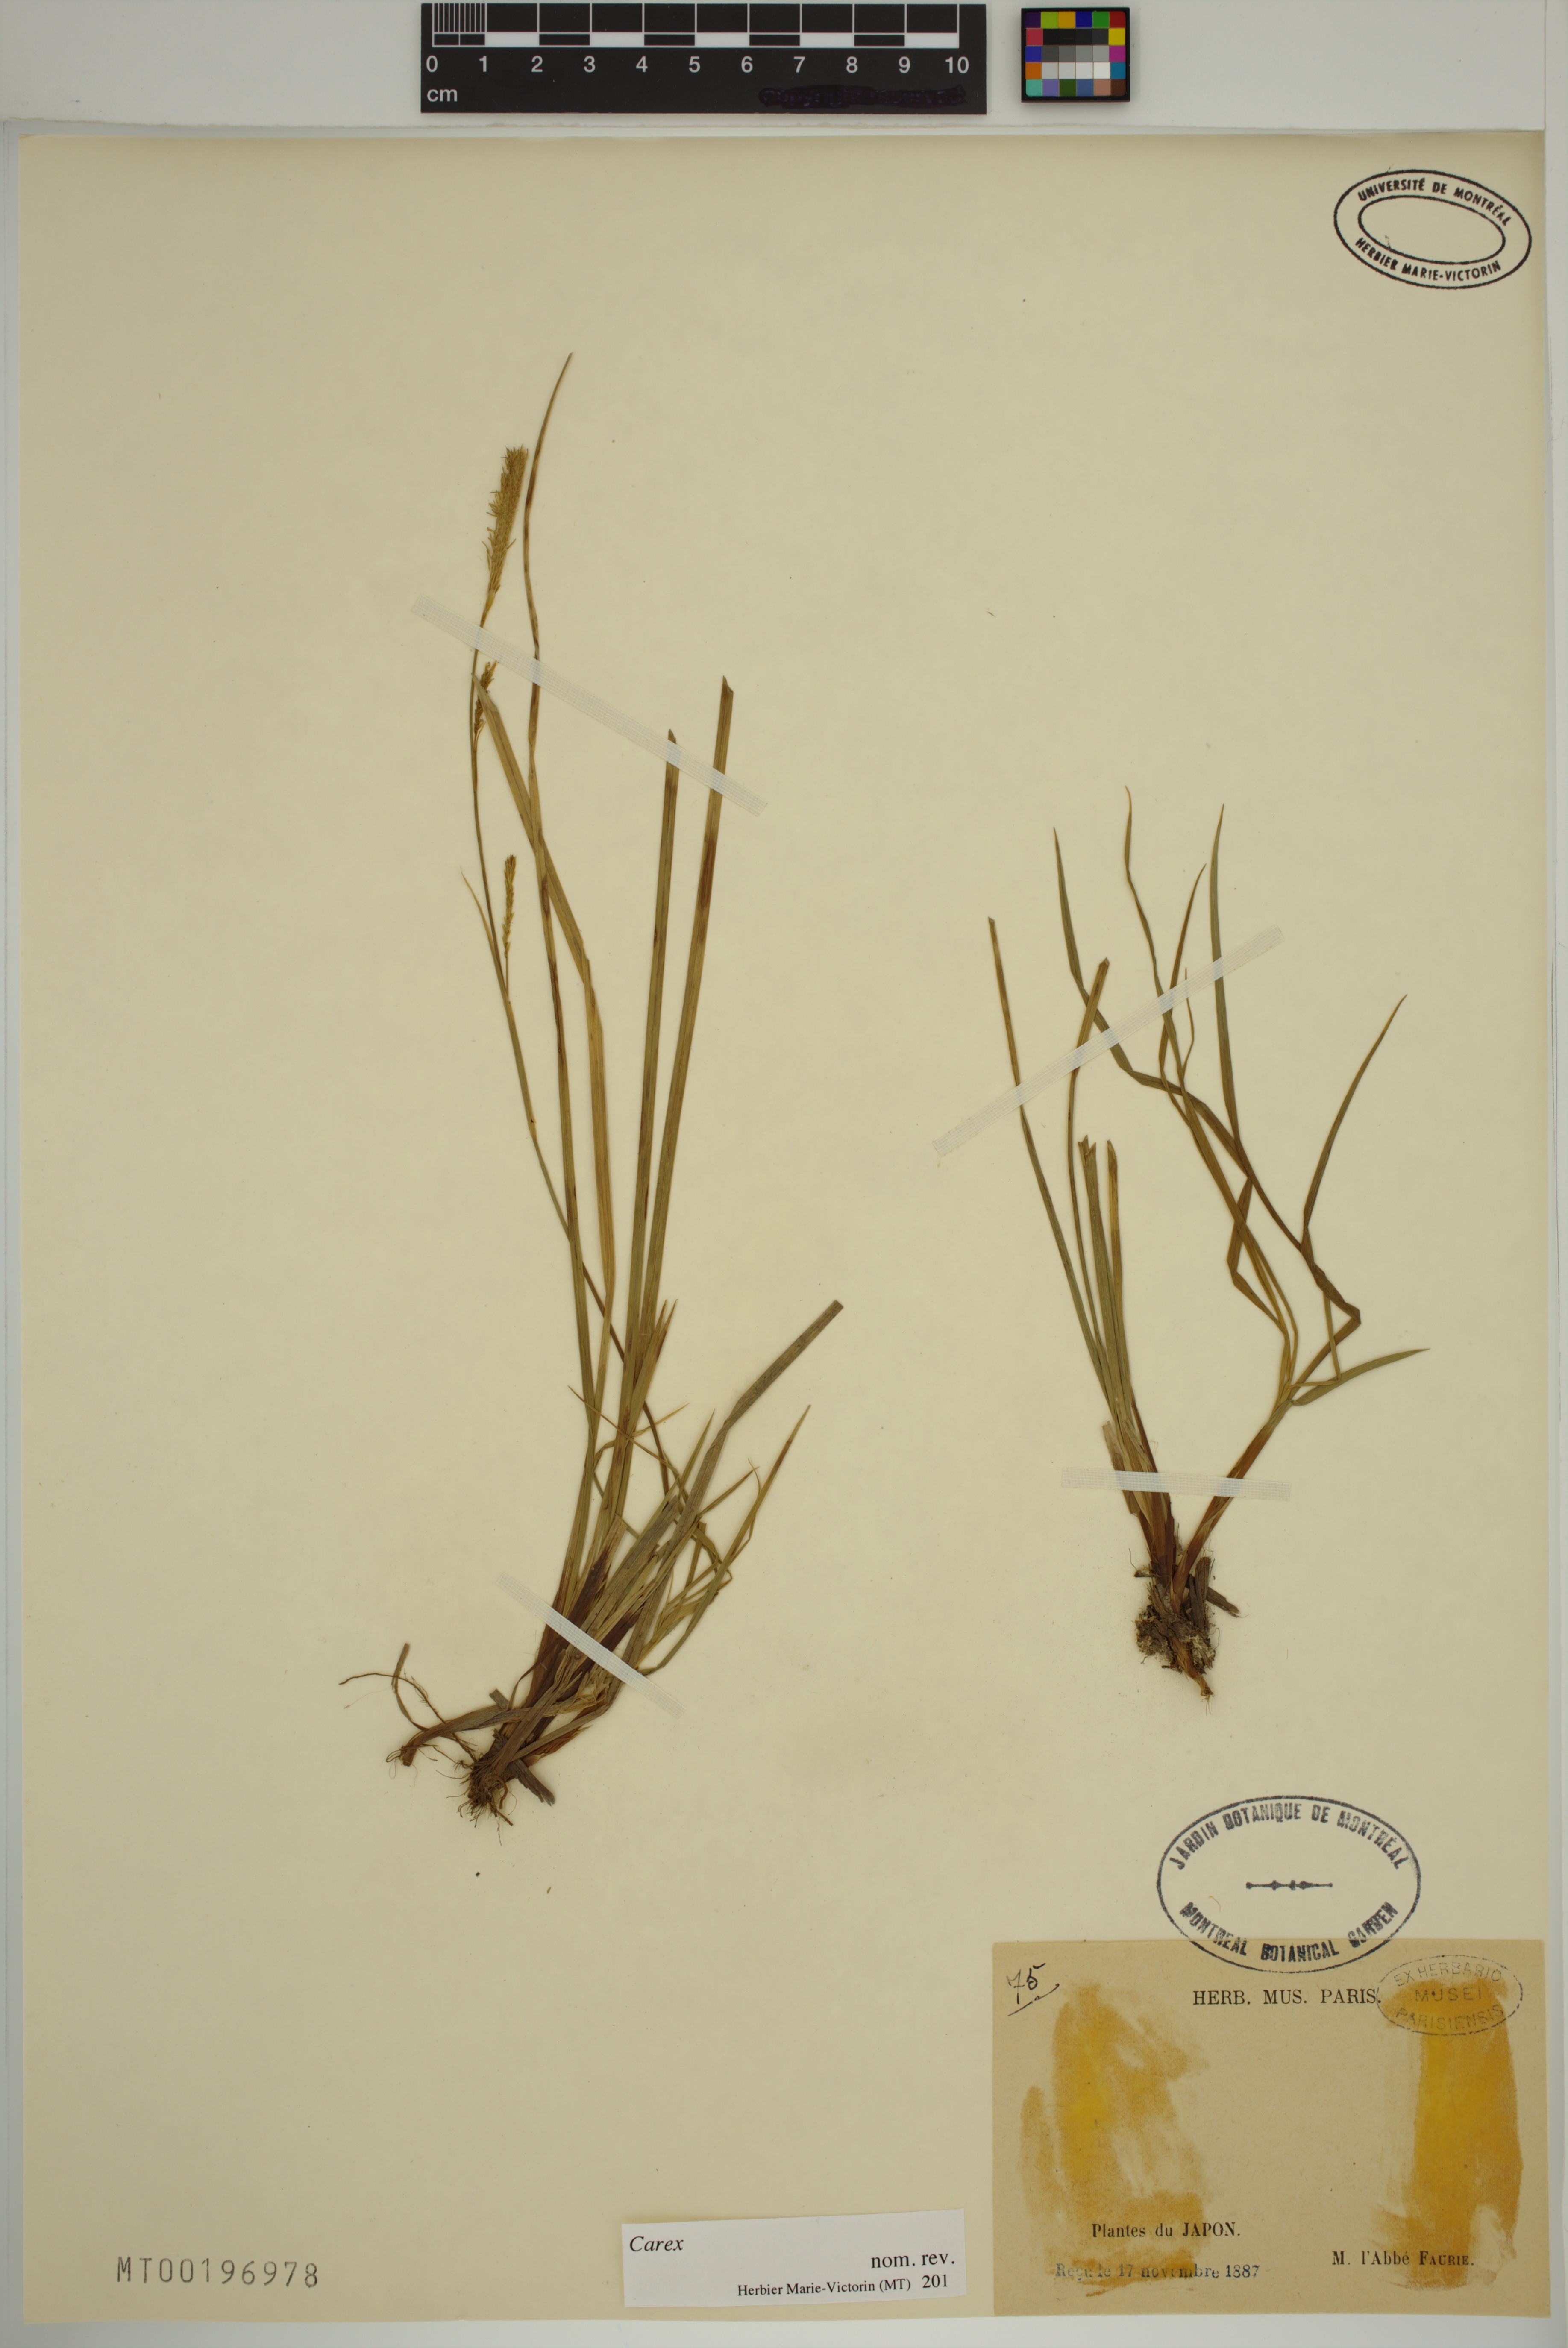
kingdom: Plantae
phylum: Tracheophyta
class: Liliopsida
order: Poales
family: Cyperaceae
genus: Carex
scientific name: Carex
